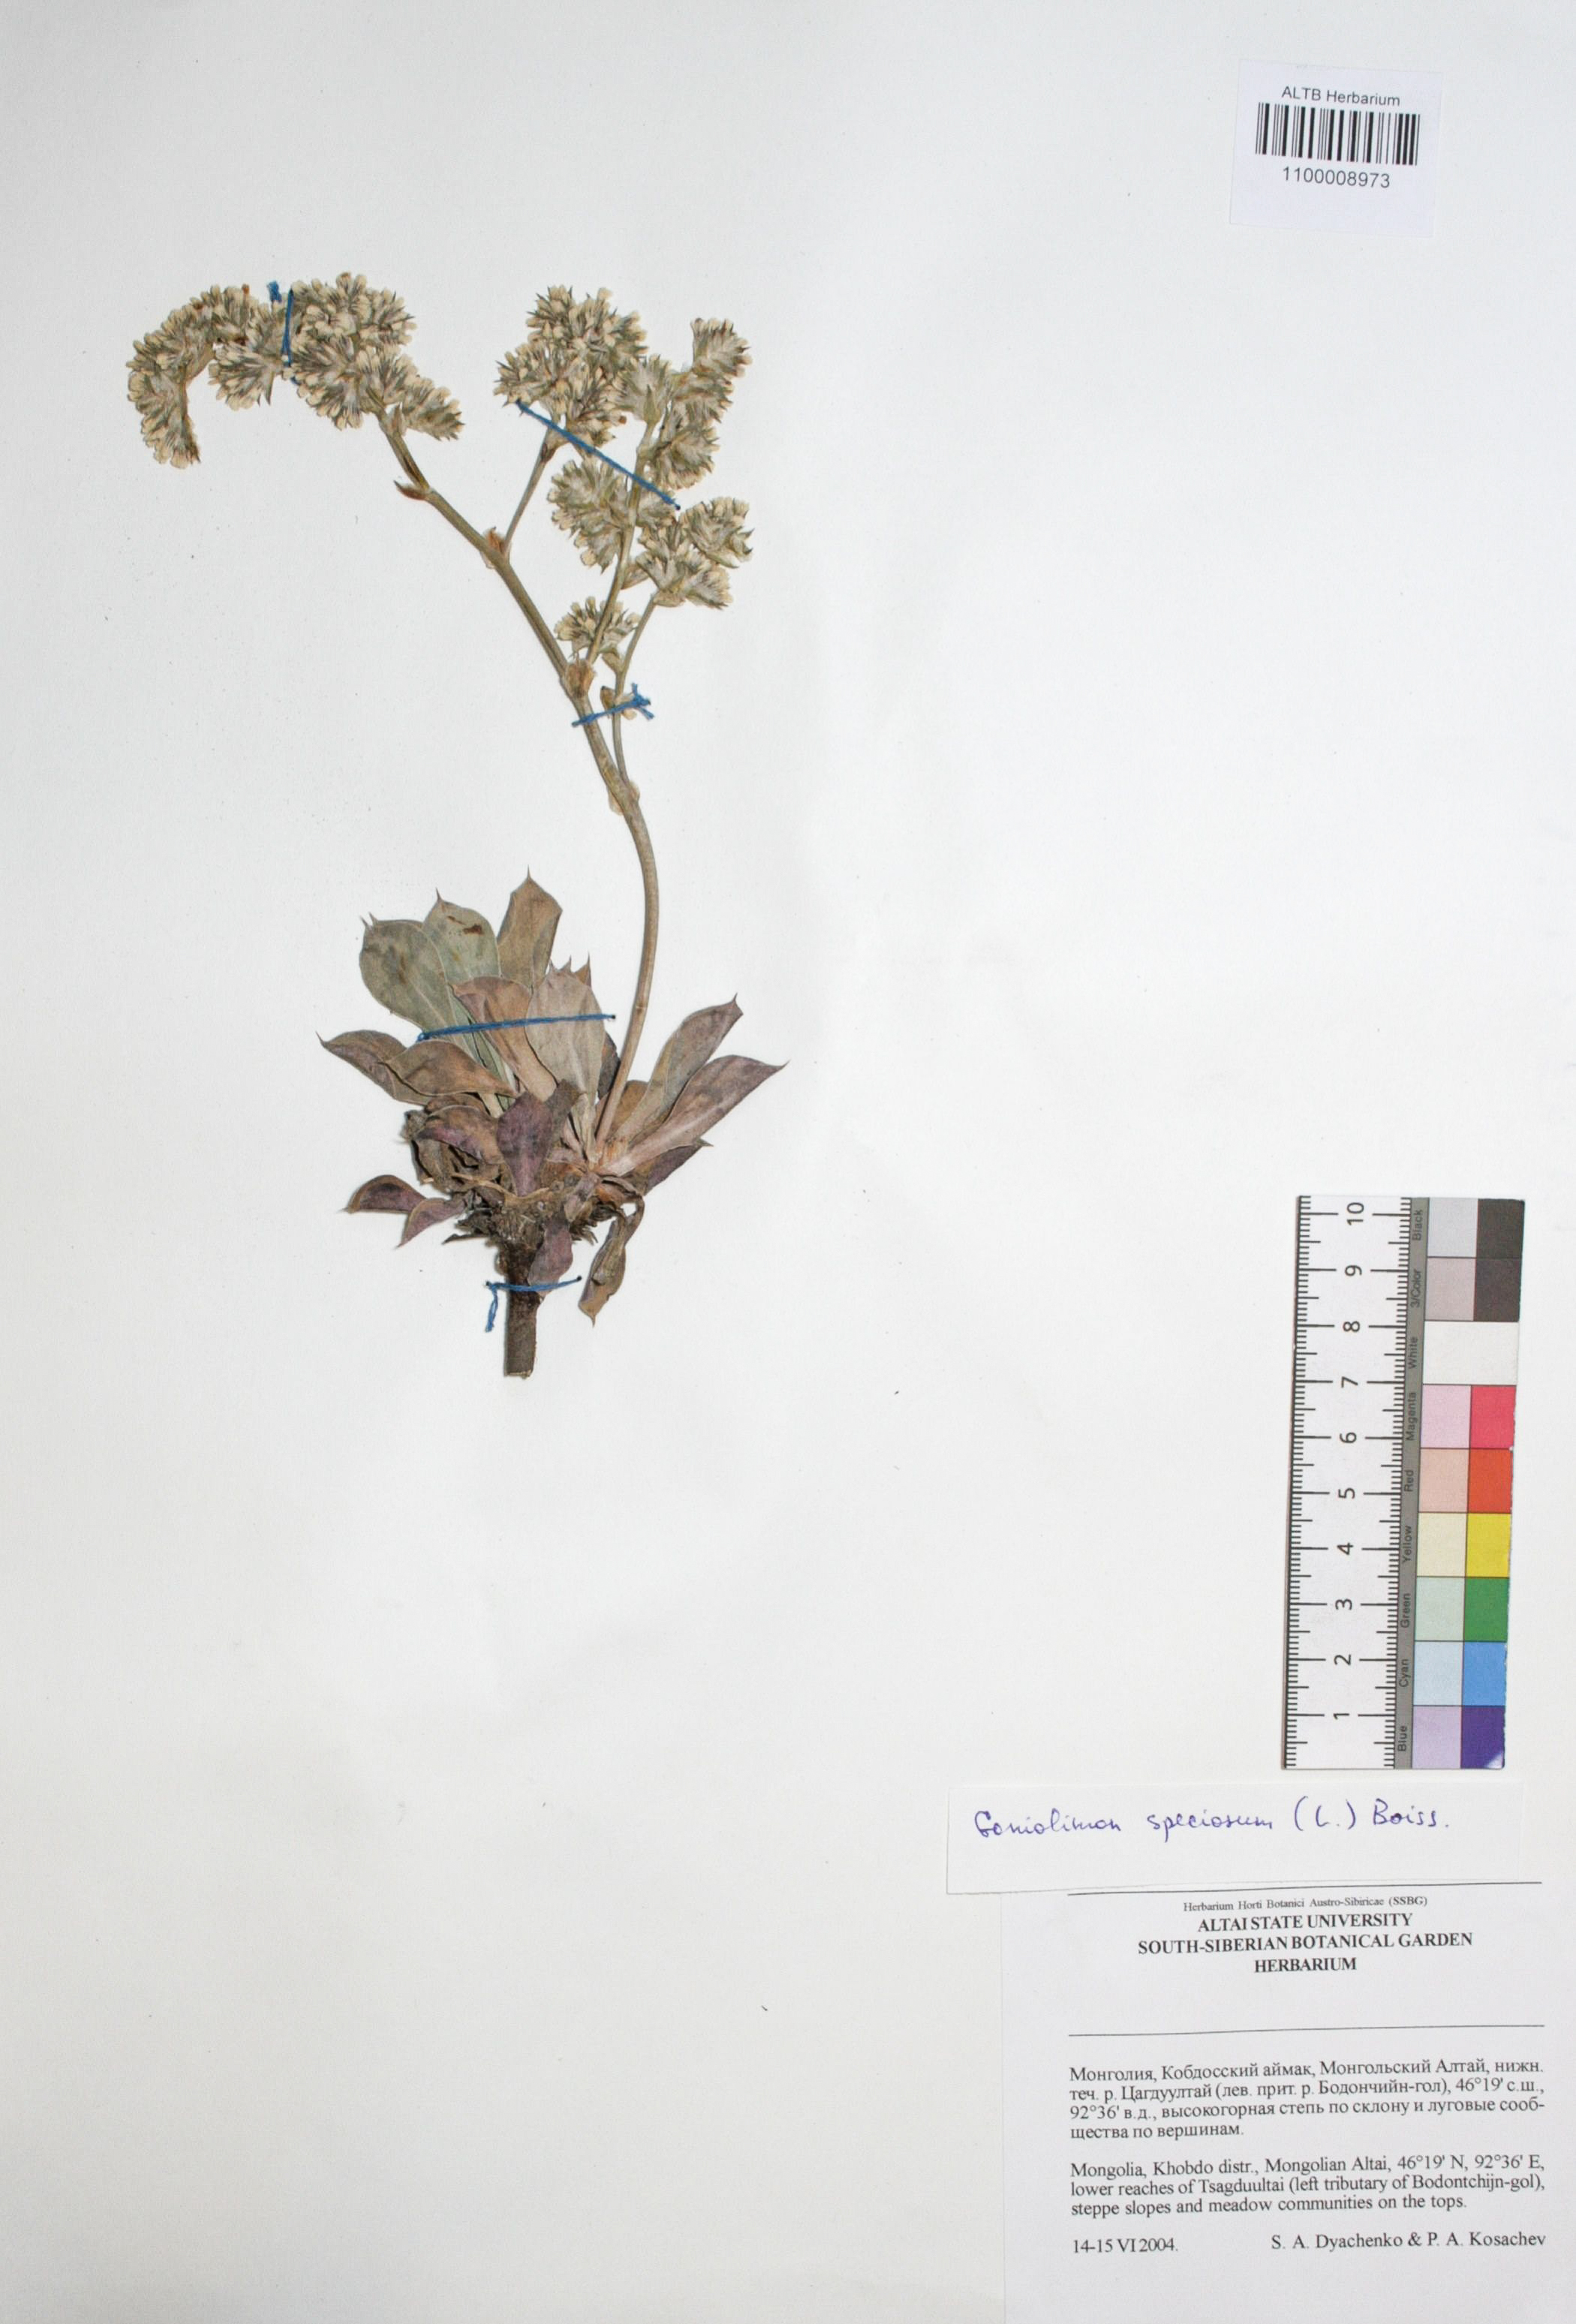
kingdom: Plantae
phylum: Tracheophyta
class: Magnoliopsida
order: Caryophyllales
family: Plumbaginaceae
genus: Goniolimon
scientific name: Goniolimon speciosum
